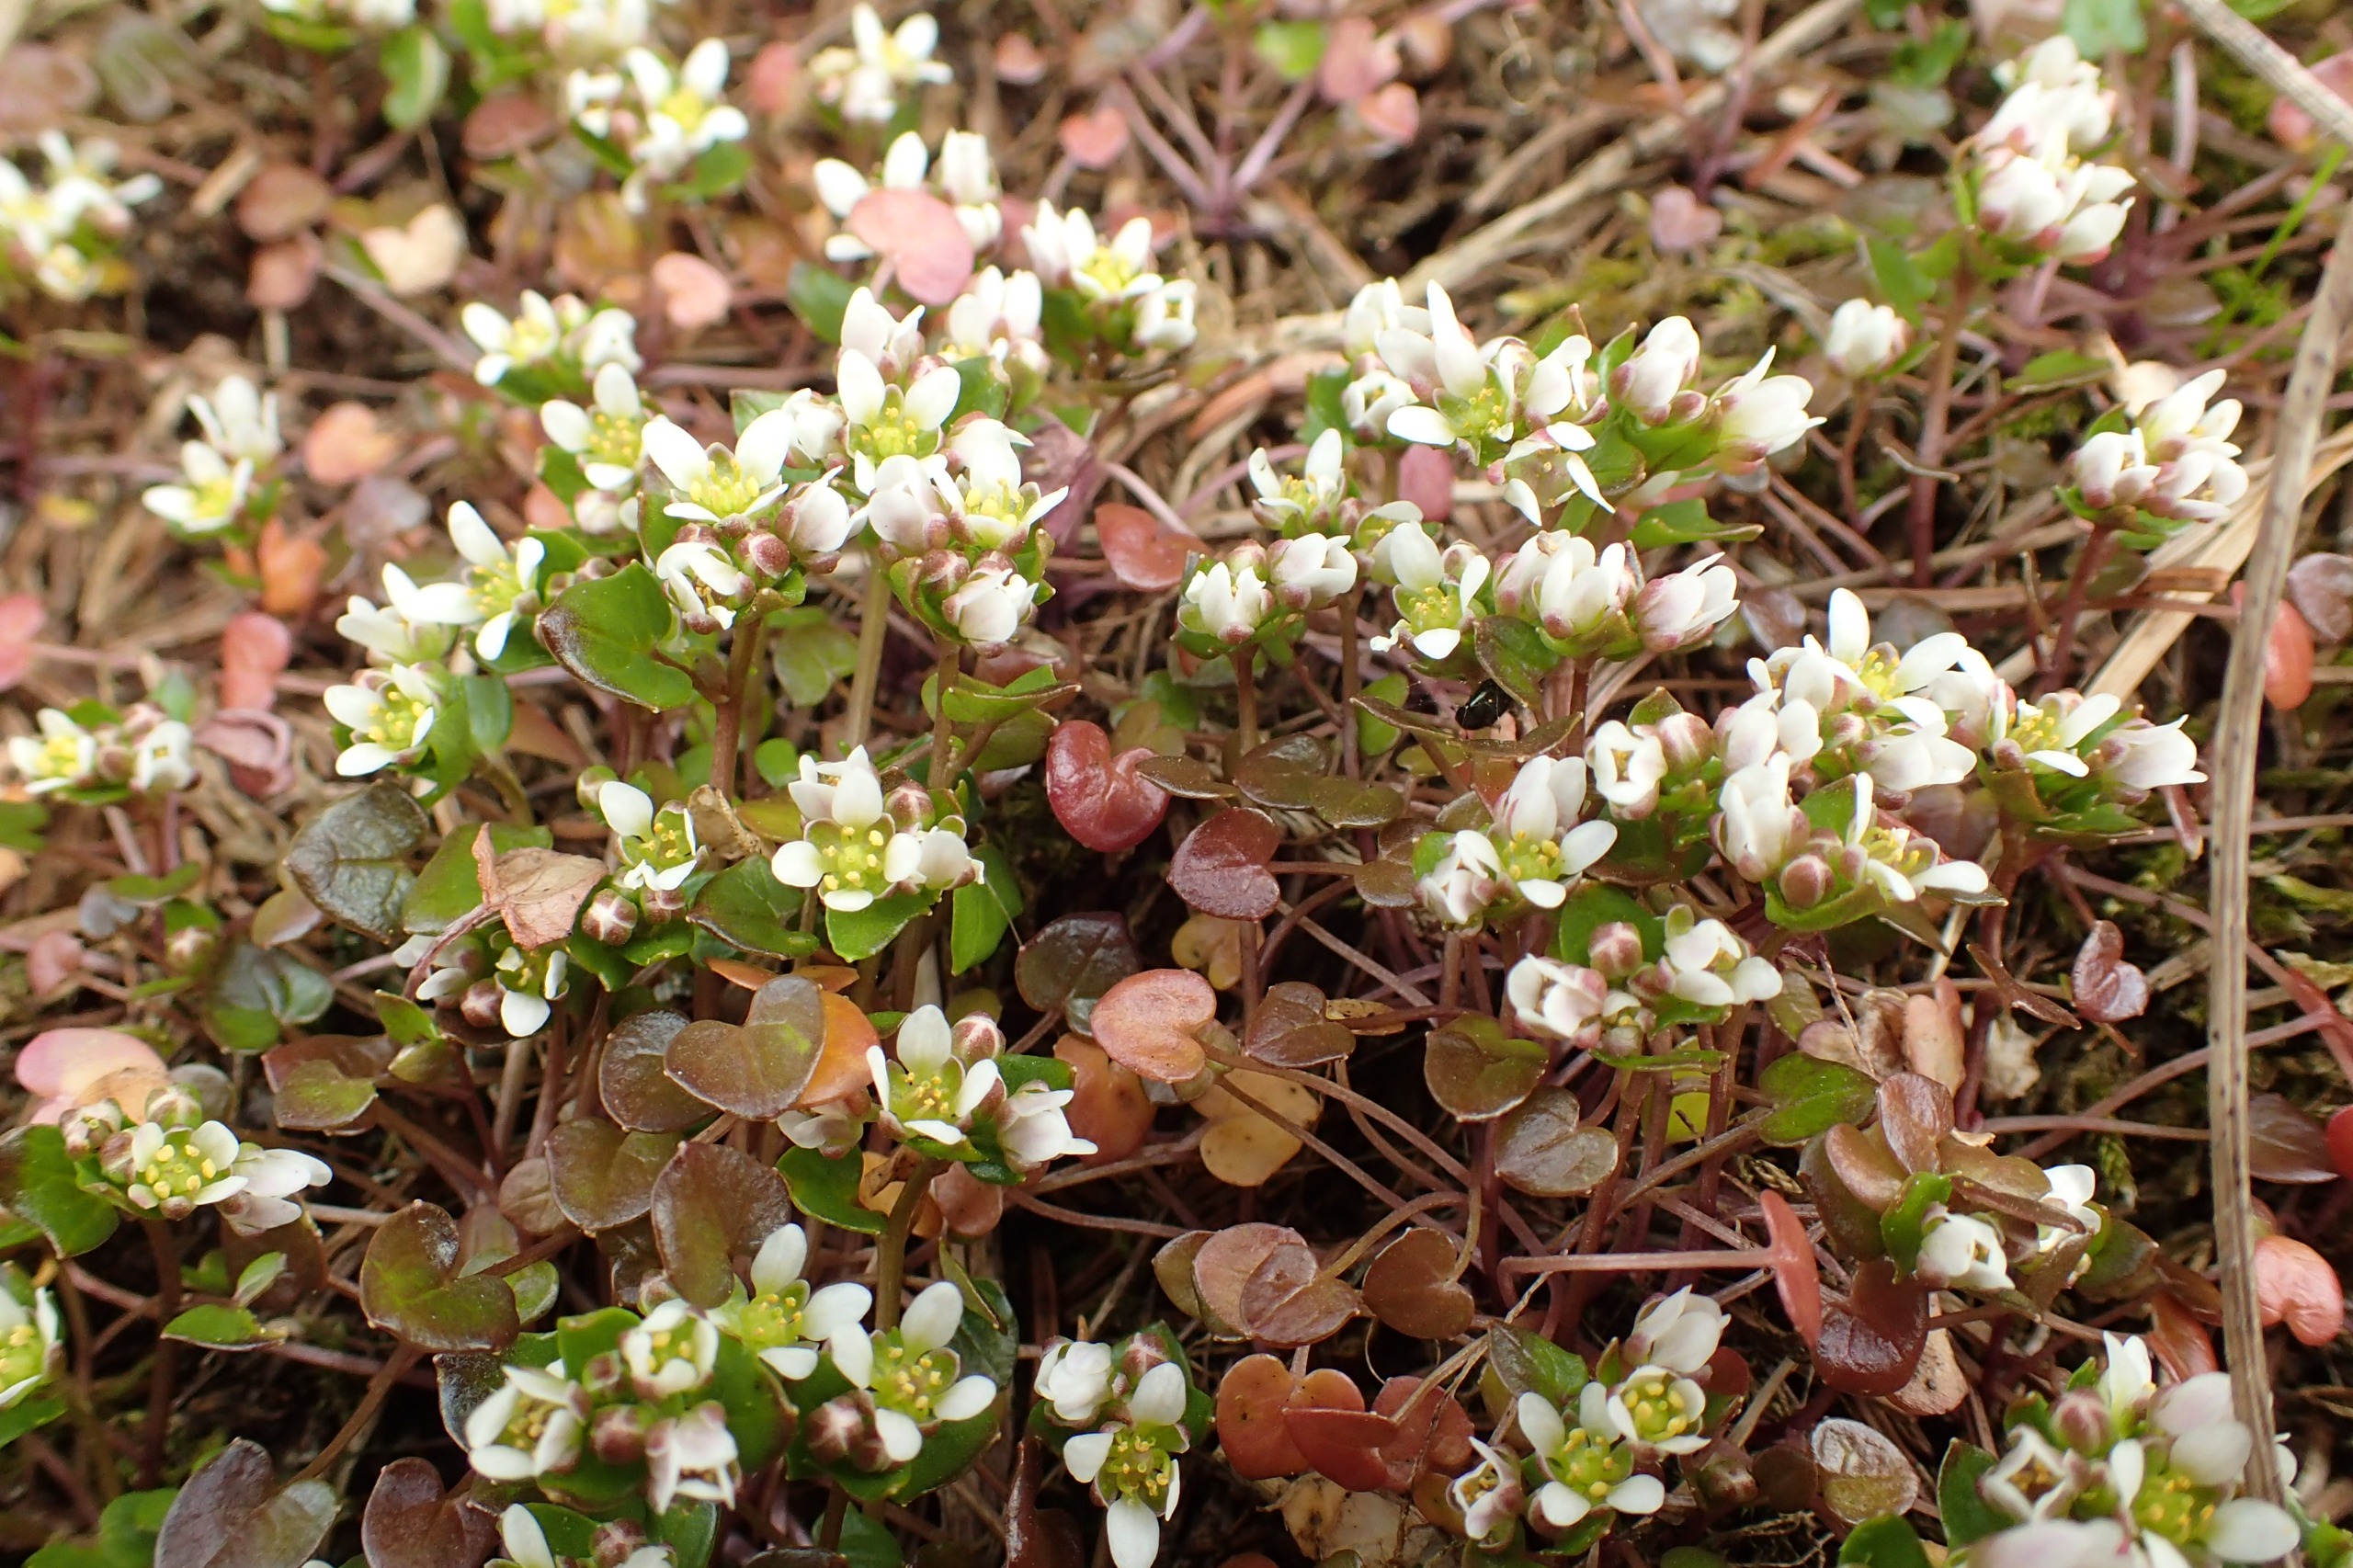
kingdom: Plantae
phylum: Tracheophyta
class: Magnoliopsida
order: Brassicales
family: Brassicaceae
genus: Cochlearia
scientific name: Cochlearia danica
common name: Dansk kokleare
